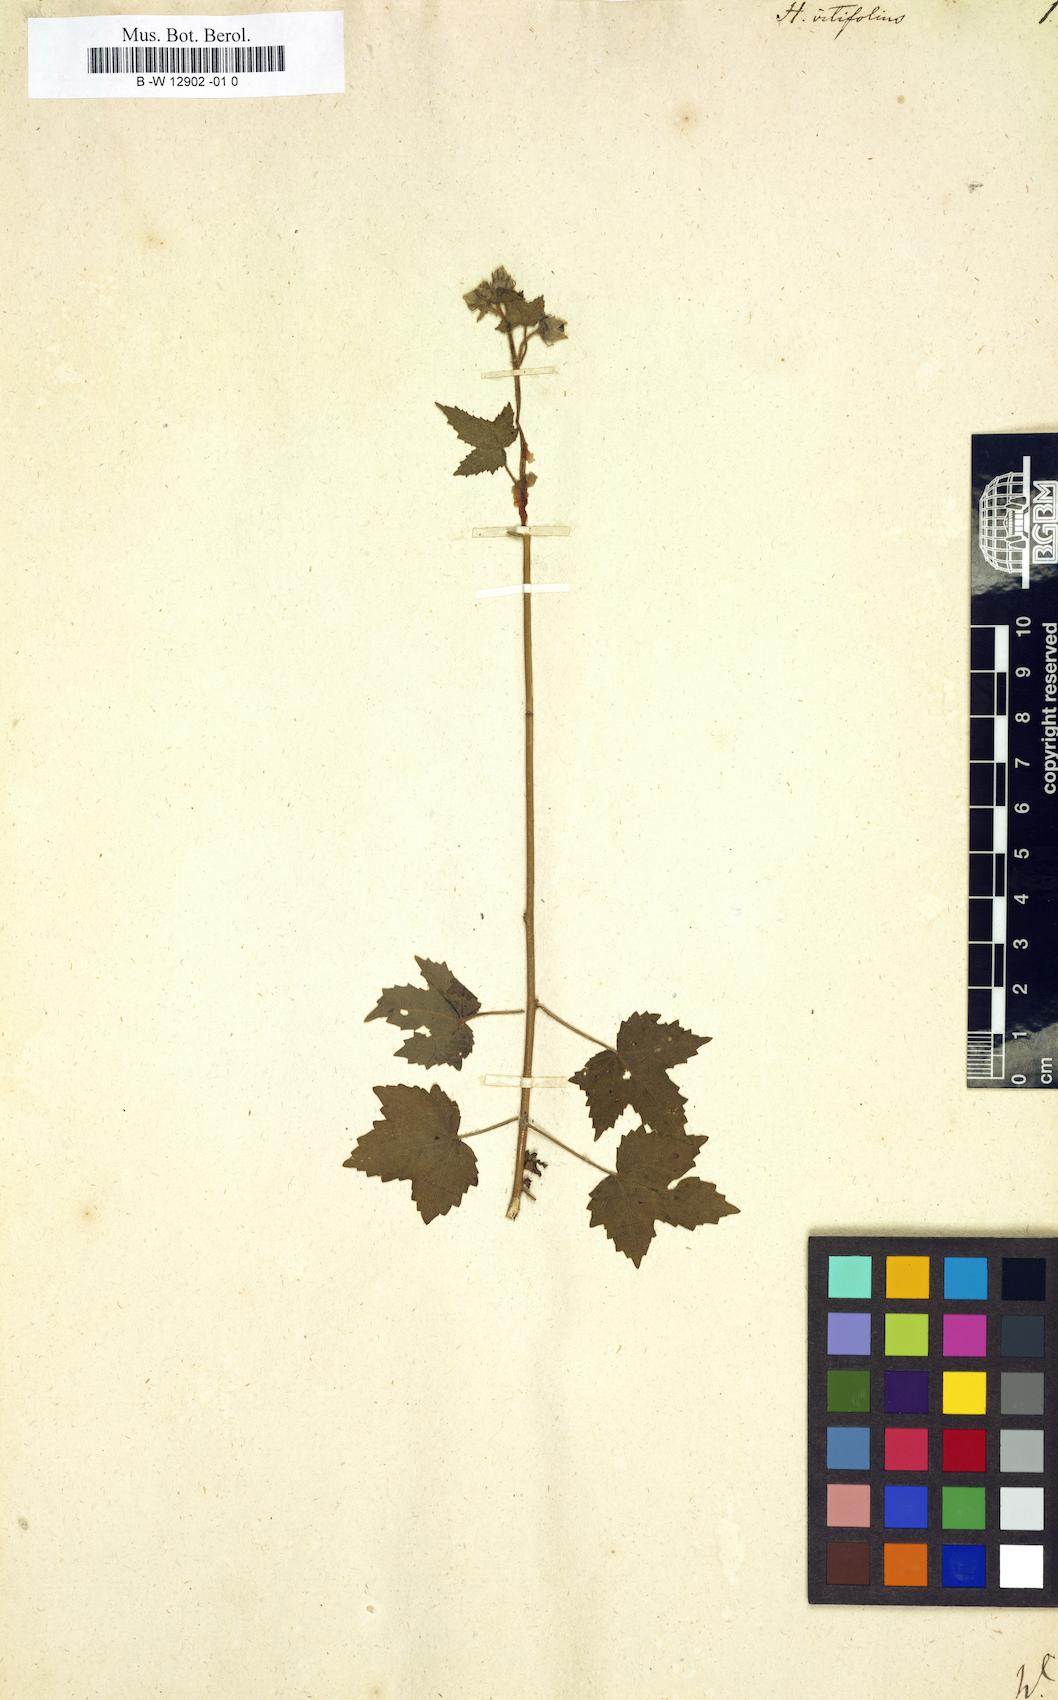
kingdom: Plantae
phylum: Tracheophyta
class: Magnoliopsida
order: Malvales
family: Malvaceae
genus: Hibiscus
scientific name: Hibiscus vitifolius
